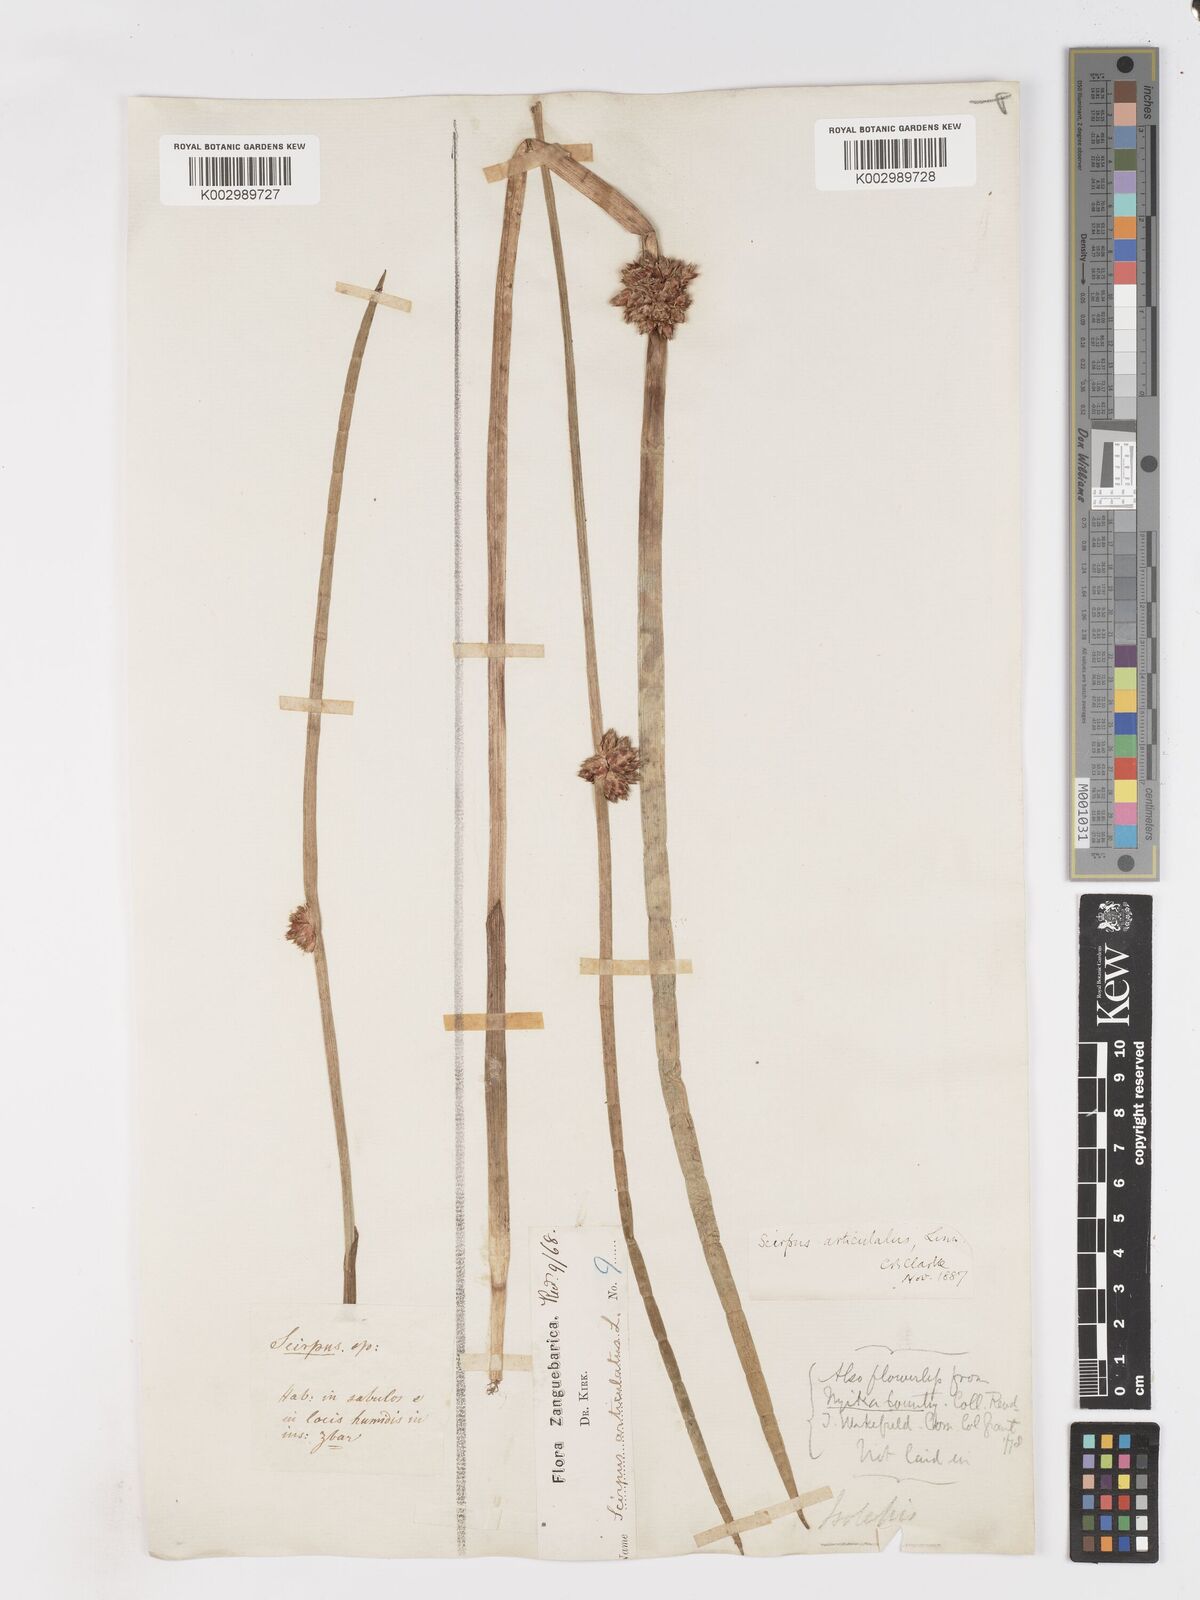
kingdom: Plantae
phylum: Tracheophyta
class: Liliopsida
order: Poales
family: Cyperaceae
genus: Schoenoplectiella
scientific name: Schoenoplectiella articulata
